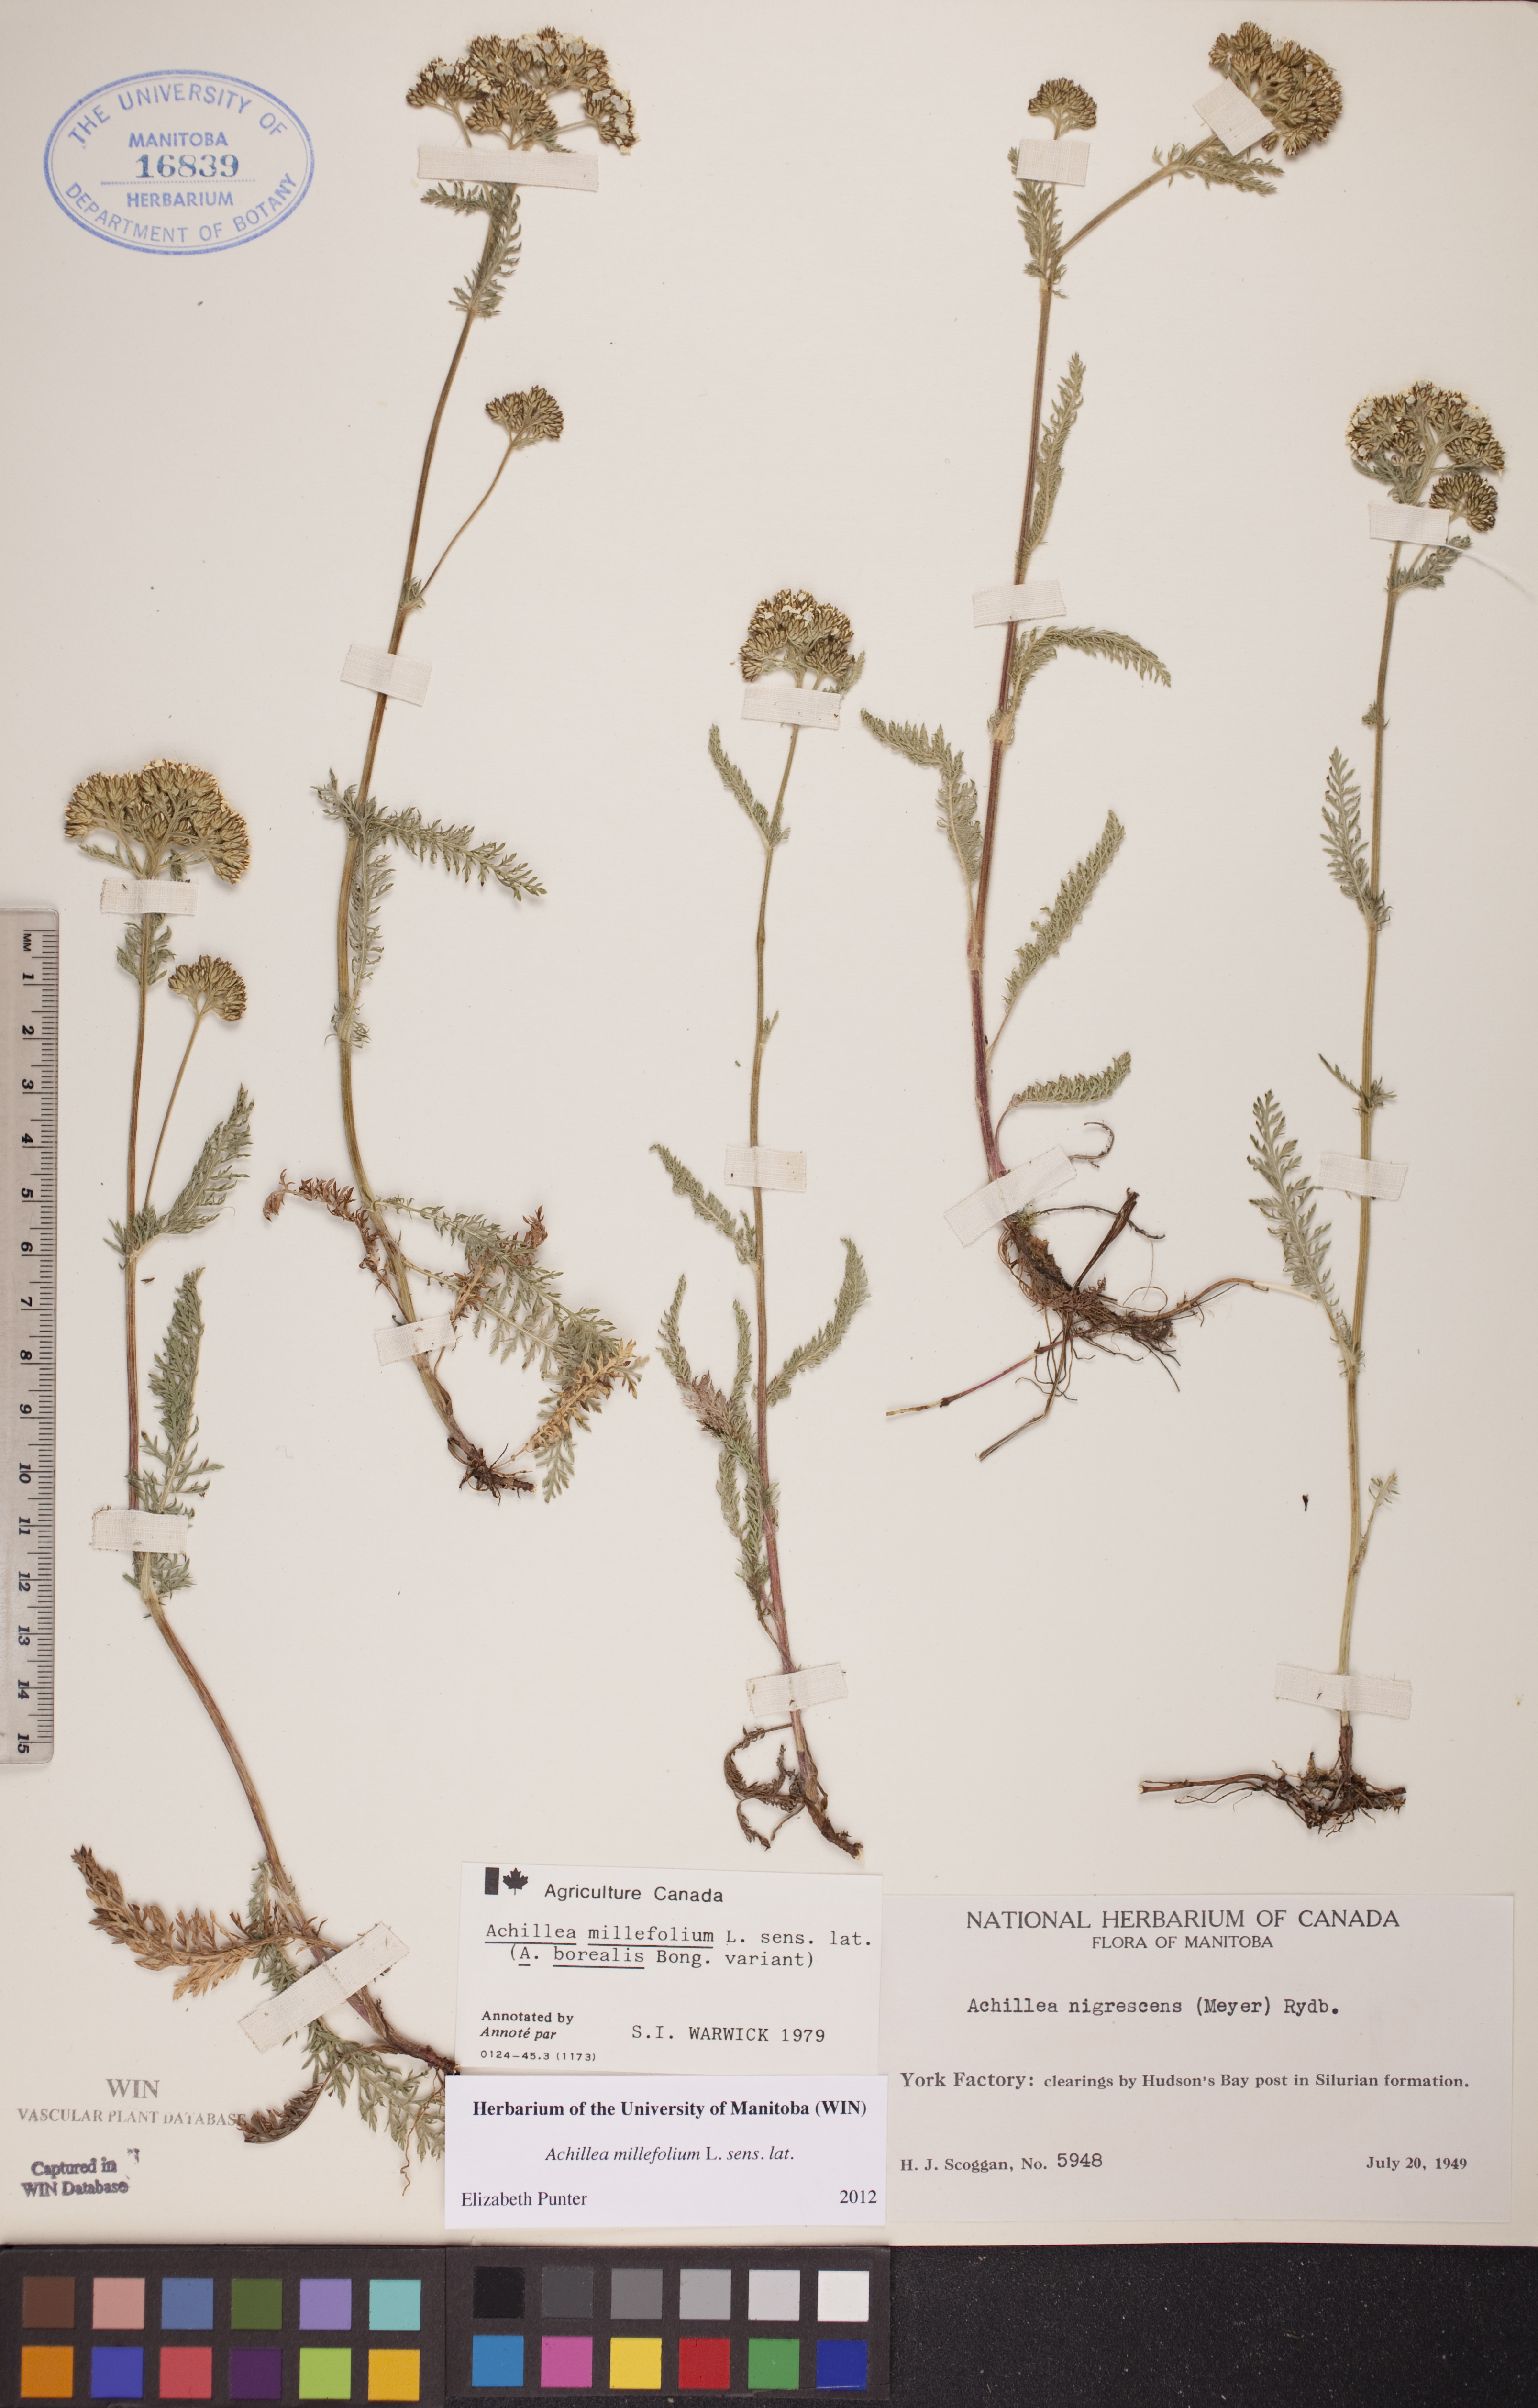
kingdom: Plantae
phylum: Tracheophyta
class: Magnoliopsida
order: Asterales
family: Asteraceae
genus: Achillea
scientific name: Achillea millefolium
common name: Yarrow
